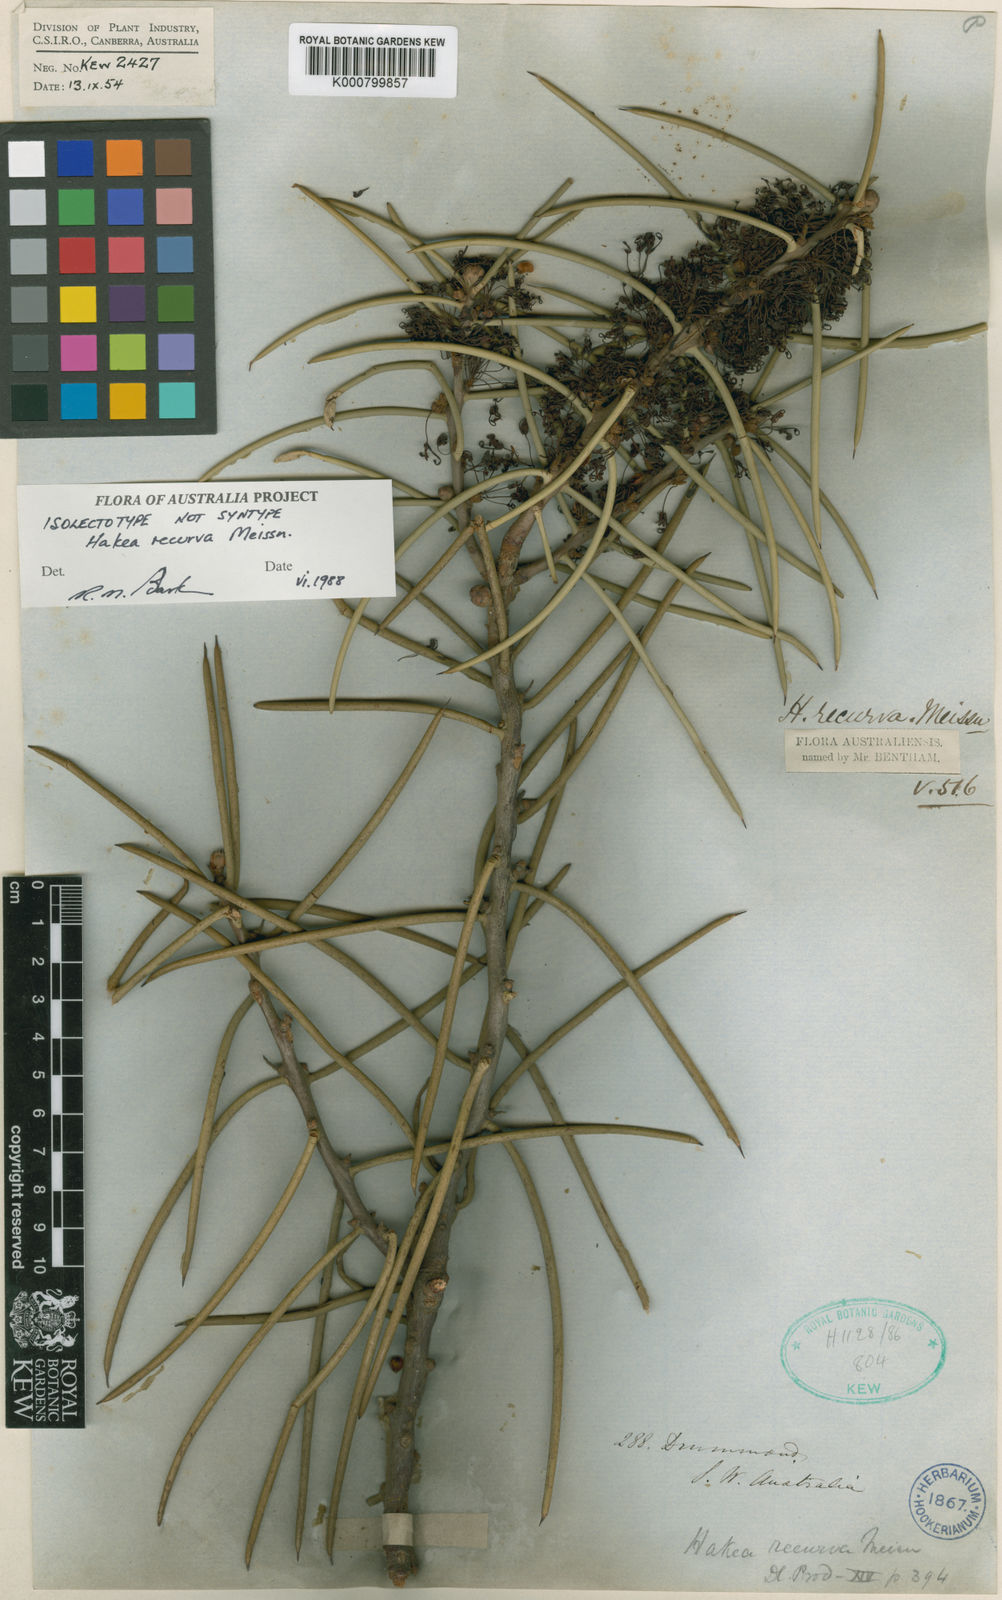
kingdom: Plantae
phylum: Tracheophyta
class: Magnoliopsida
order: Proteales
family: Proteaceae
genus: Hakea
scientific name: Hakea recurva
